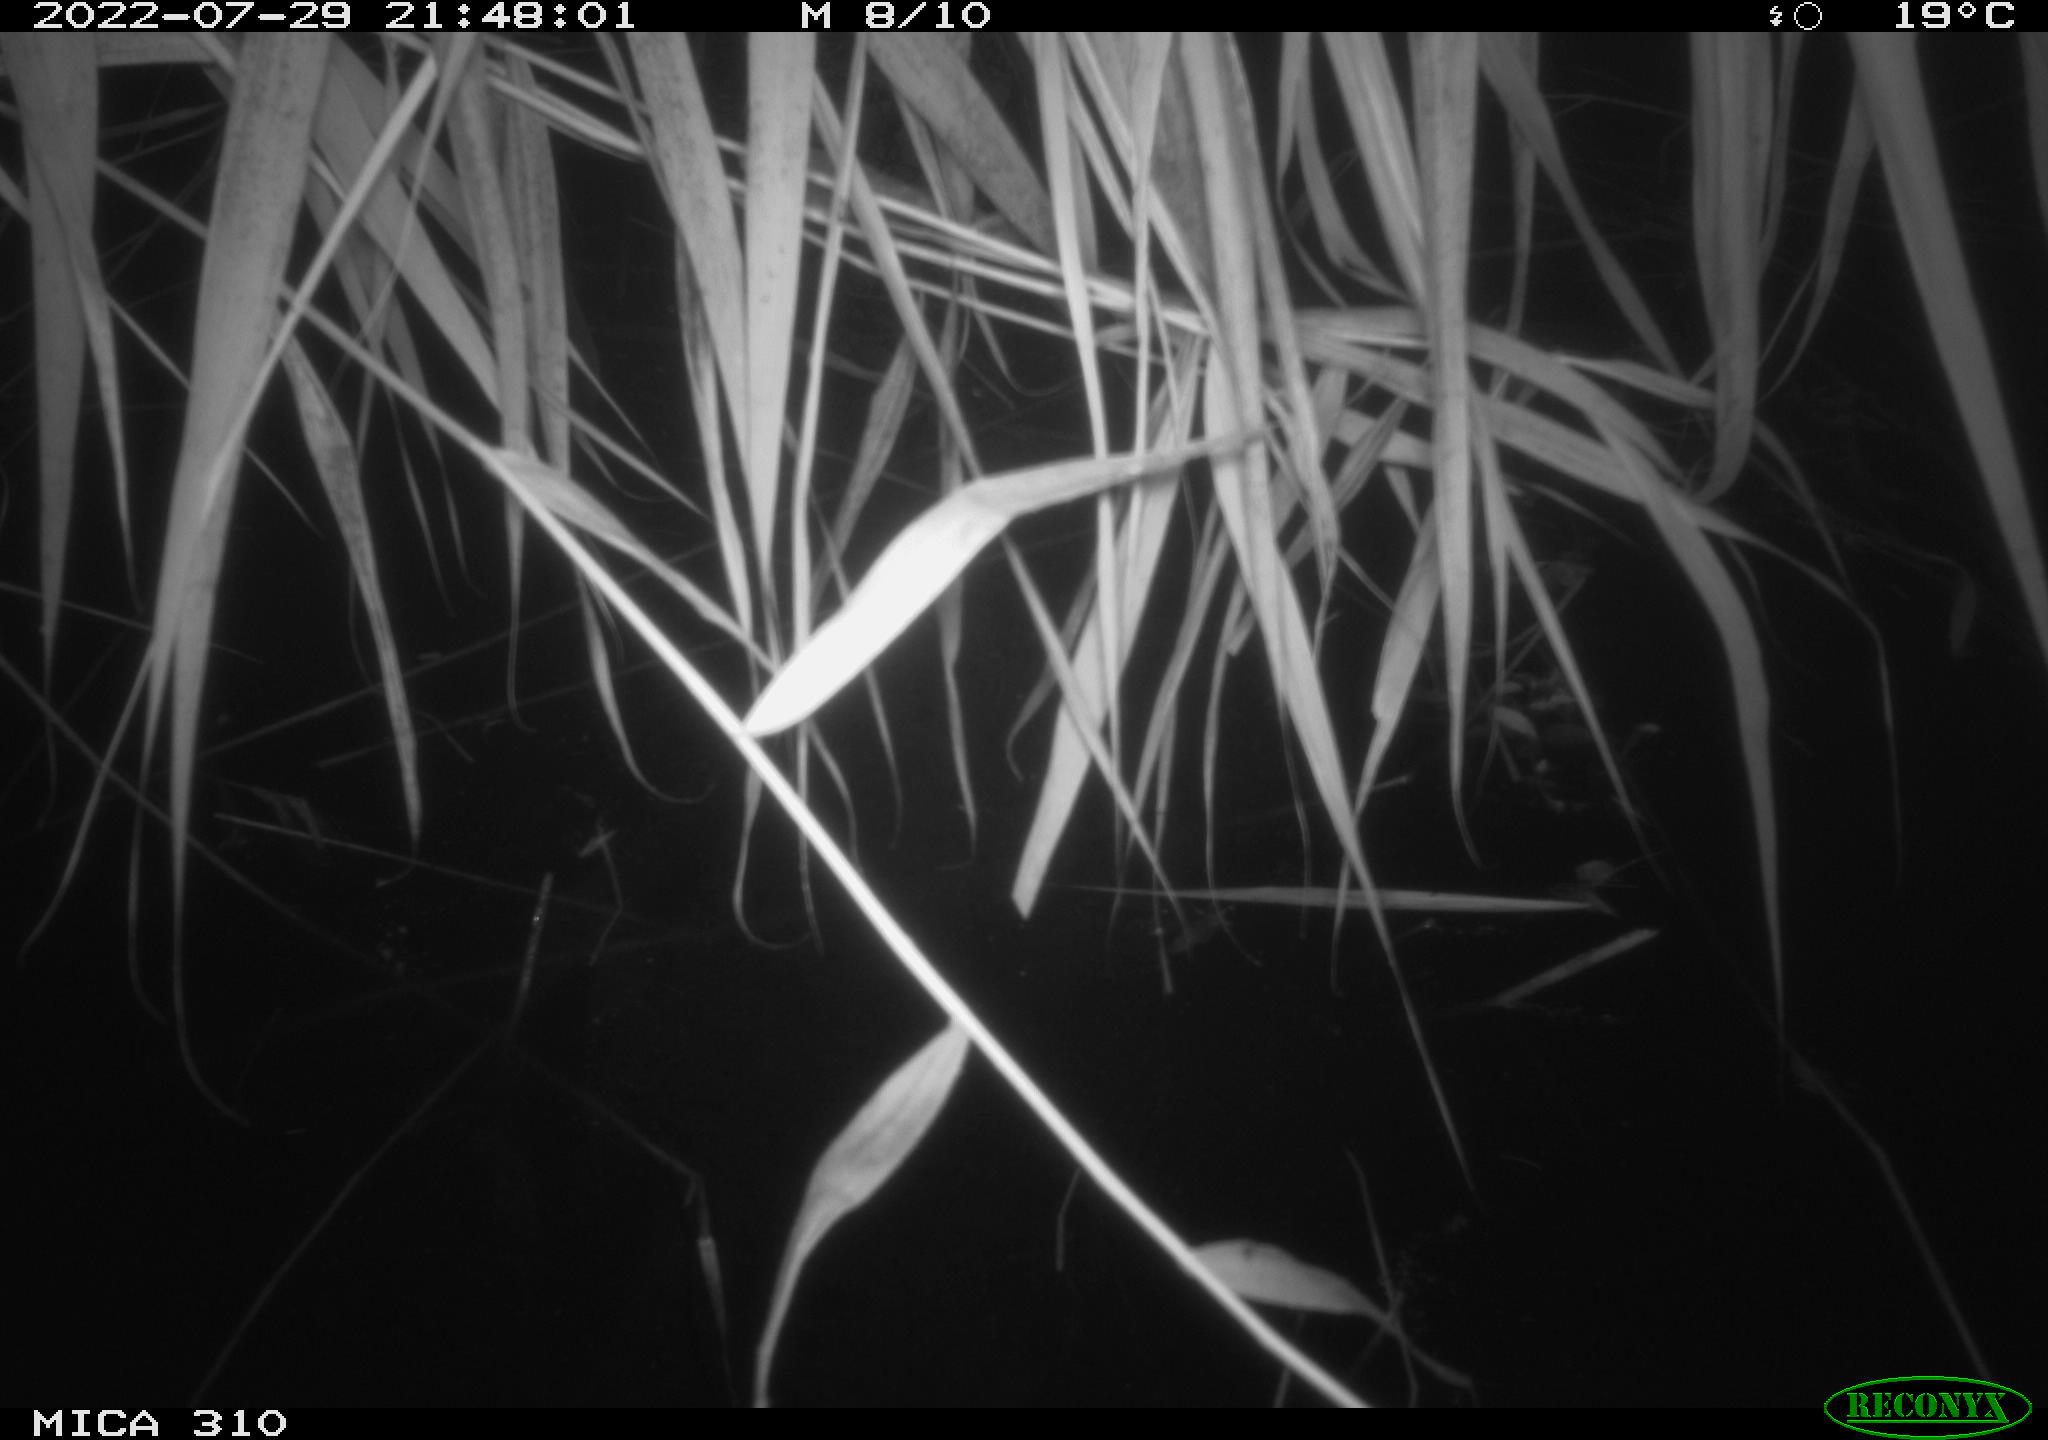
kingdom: Animalia
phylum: Chordata
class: Aves
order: Anseriformes
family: Anatidae
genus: Anas
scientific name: Anas platyrhynchos
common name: Mallard
